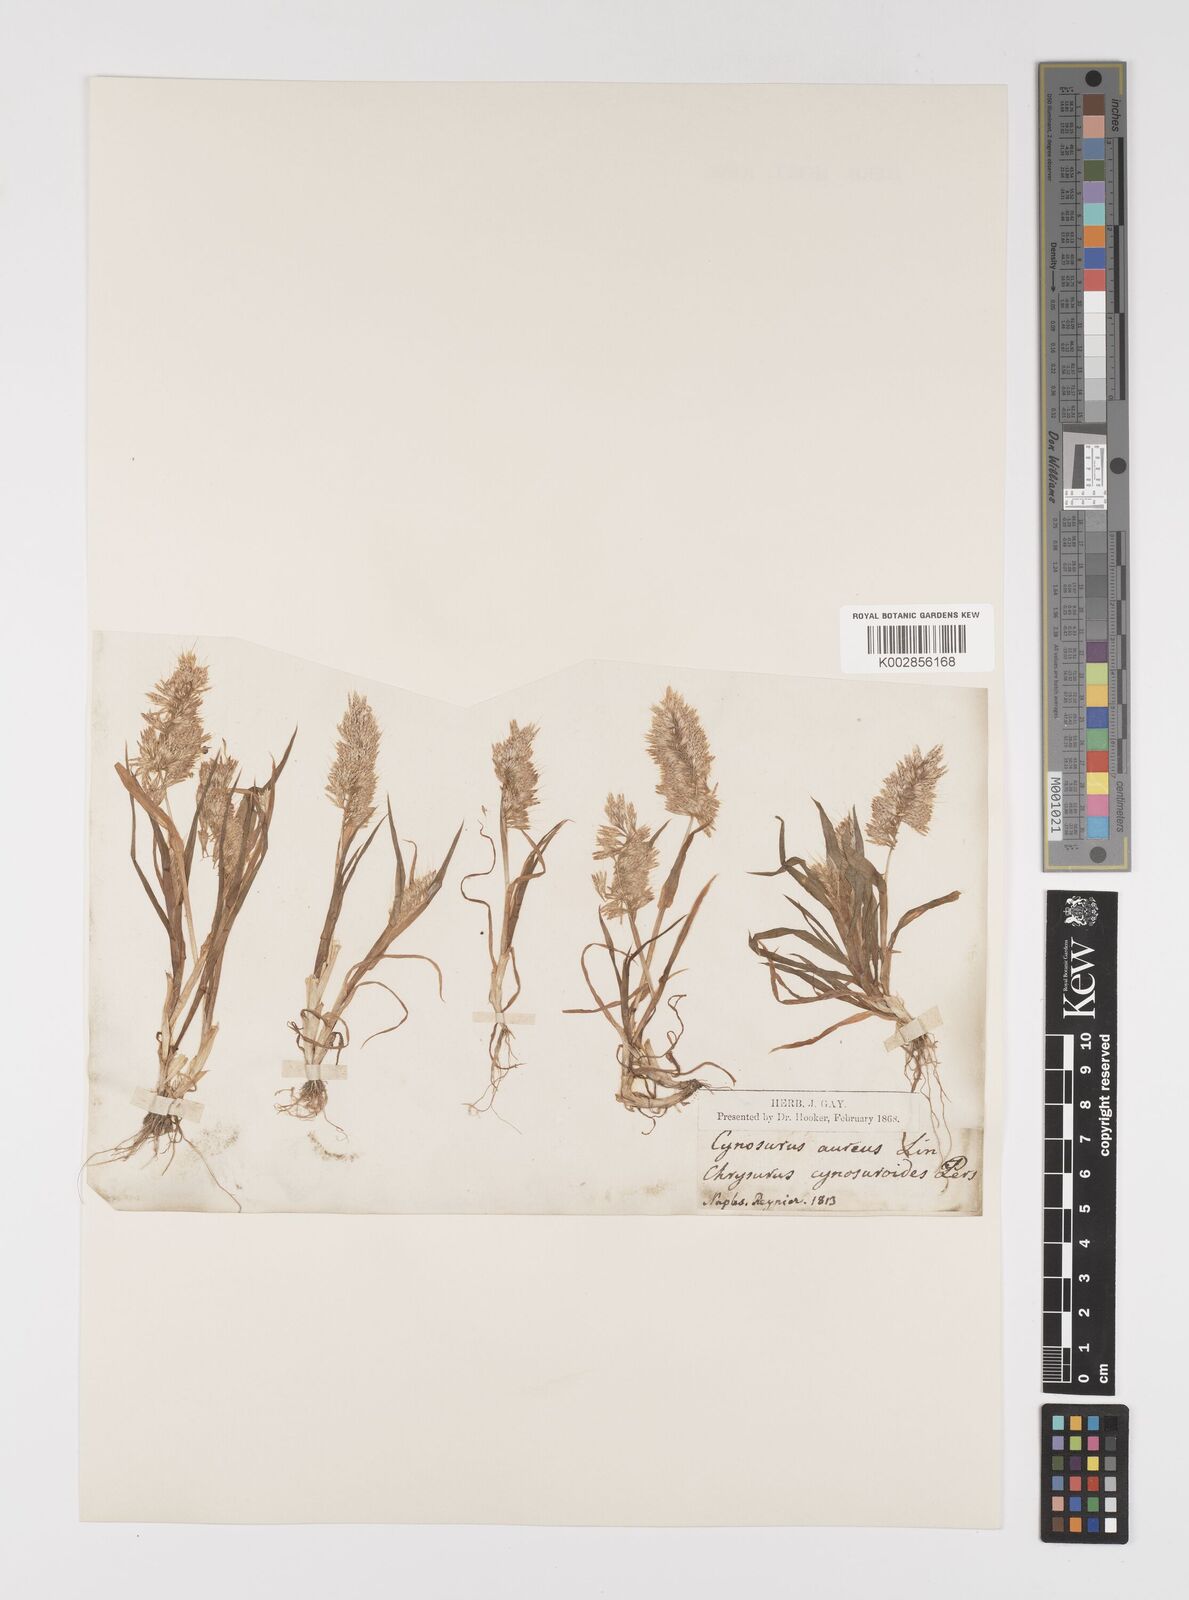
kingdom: Plantae
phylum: Tracheophyta
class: Liliopsida
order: Poales
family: Poaceae
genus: Lamarckia
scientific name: Lamarckia aurea
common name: Golden dog's-tail
